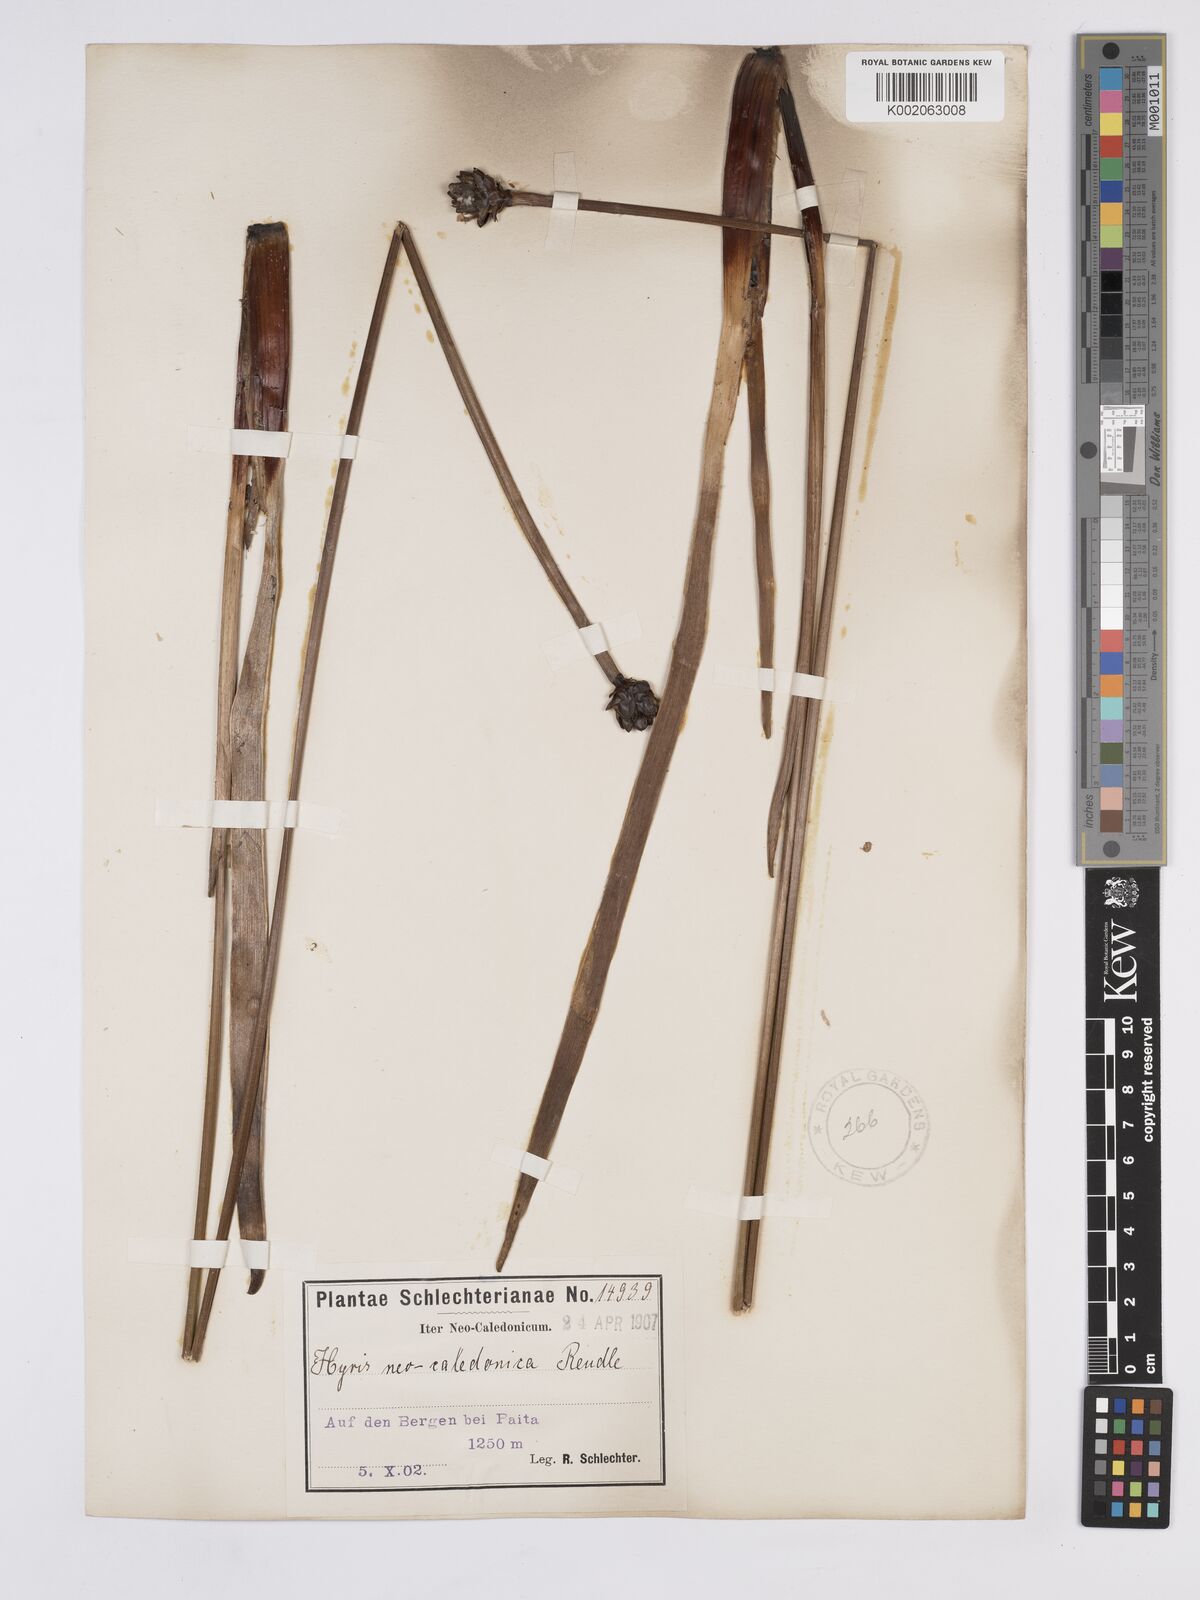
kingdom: Plantae
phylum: Tracheophyta
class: Liliopsida
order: Poales
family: Xyridaceae
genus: Xyris
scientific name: Xyris neocaledonica
